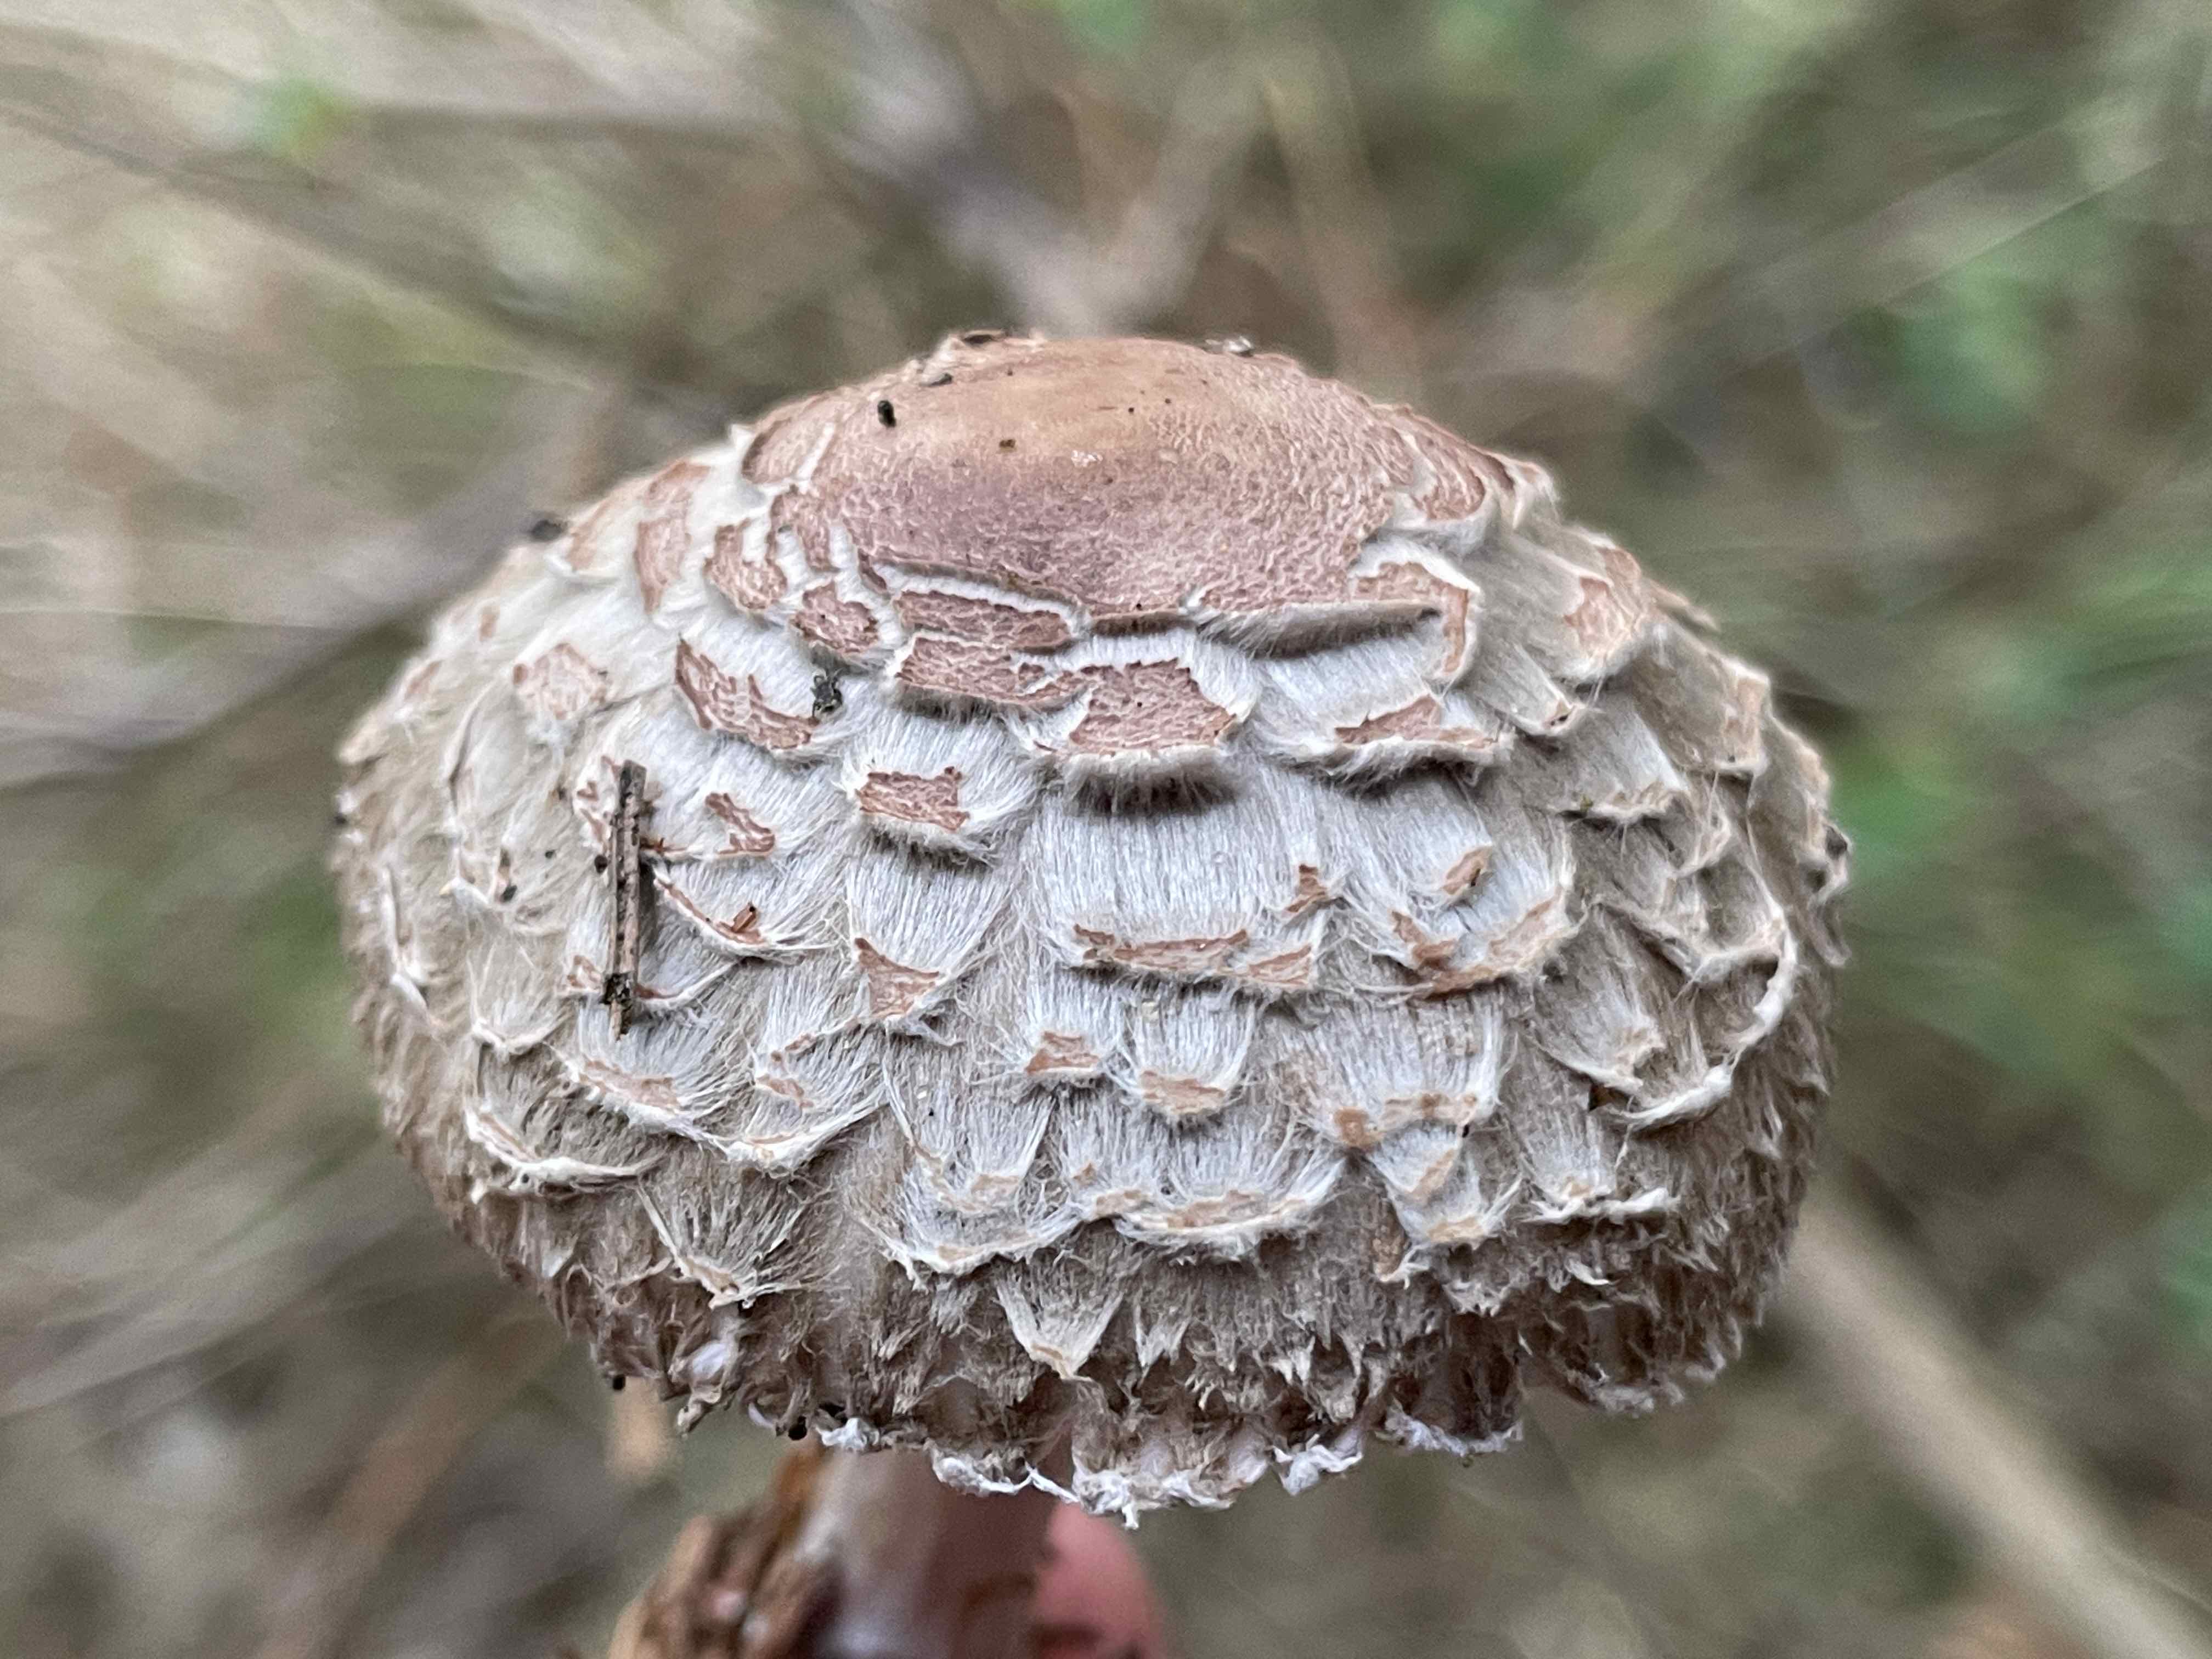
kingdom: Fungi
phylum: Basidiomycota
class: Agaricomycetes
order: Agaricales
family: Agaricaceae
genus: Chlorophyllum
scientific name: Chlorophyllum olivieri
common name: almindelig rabarberhat
